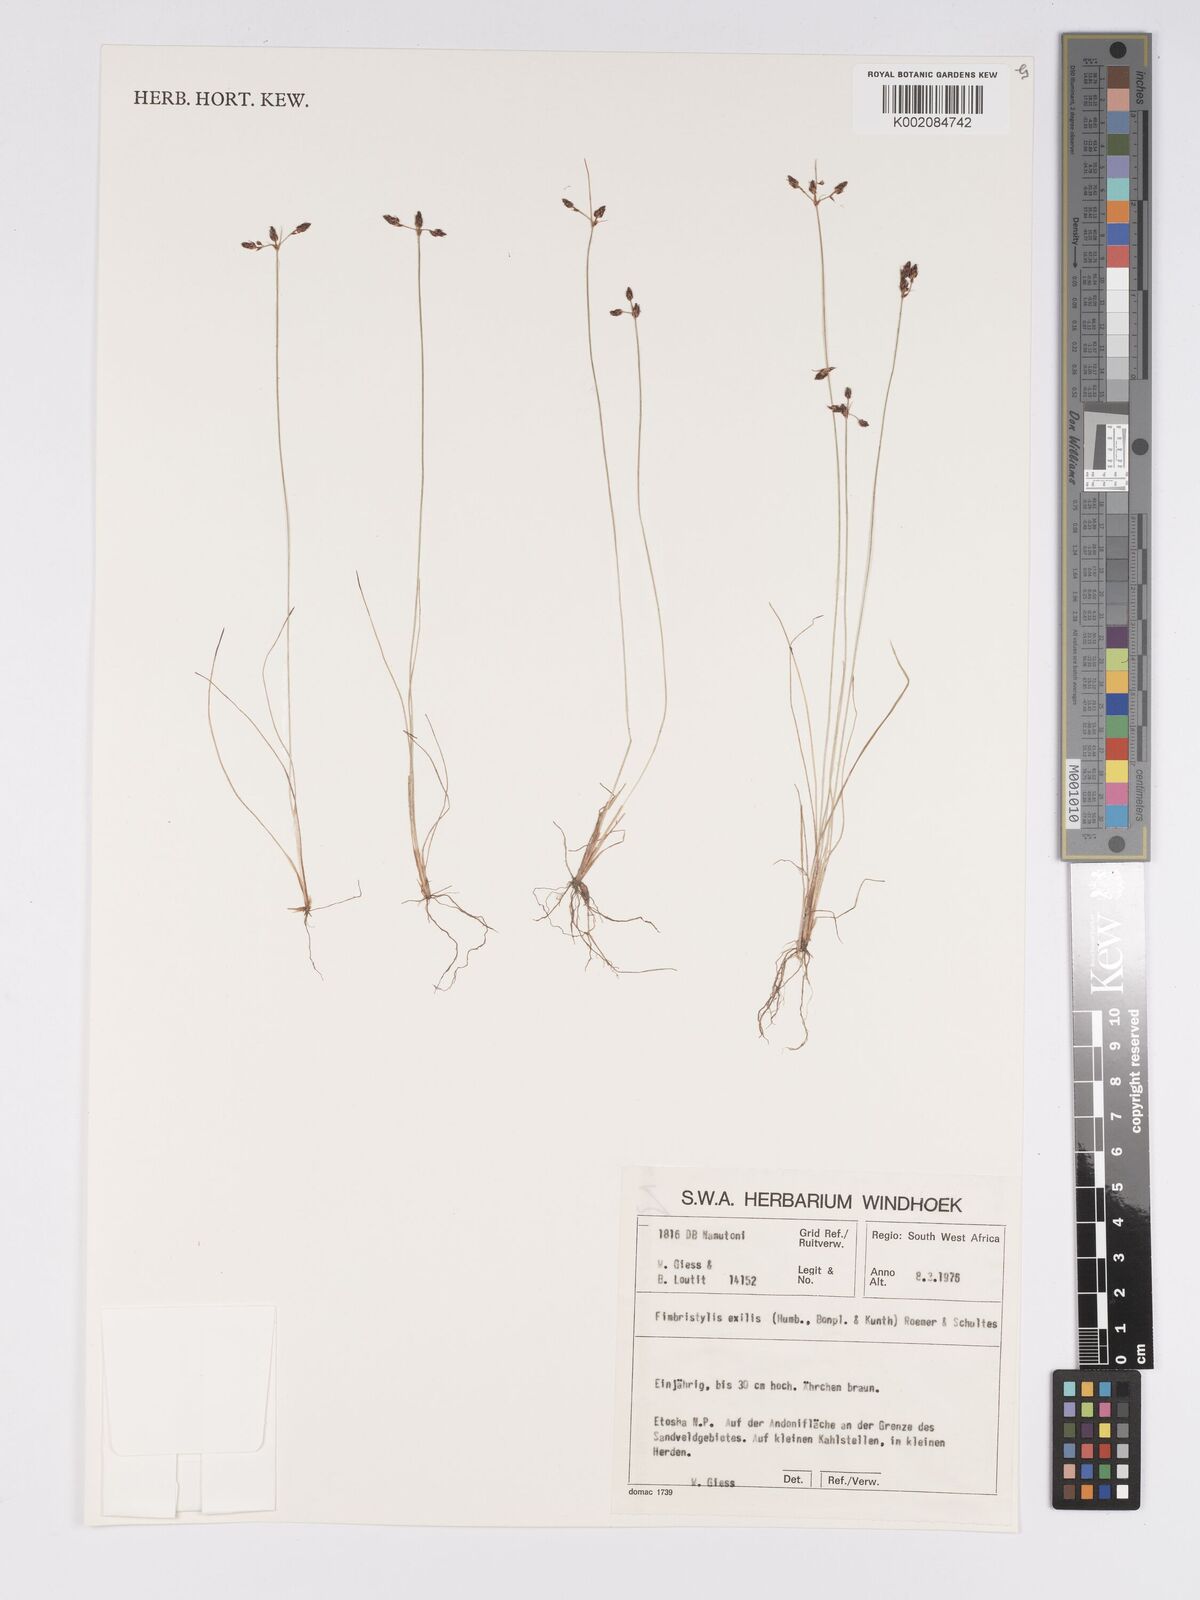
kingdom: Plantae
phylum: Tracheophyta
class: Liliopsida
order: Poales
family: Cyperaceae
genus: Bulbostylis
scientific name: Bulbostylis hispidula
